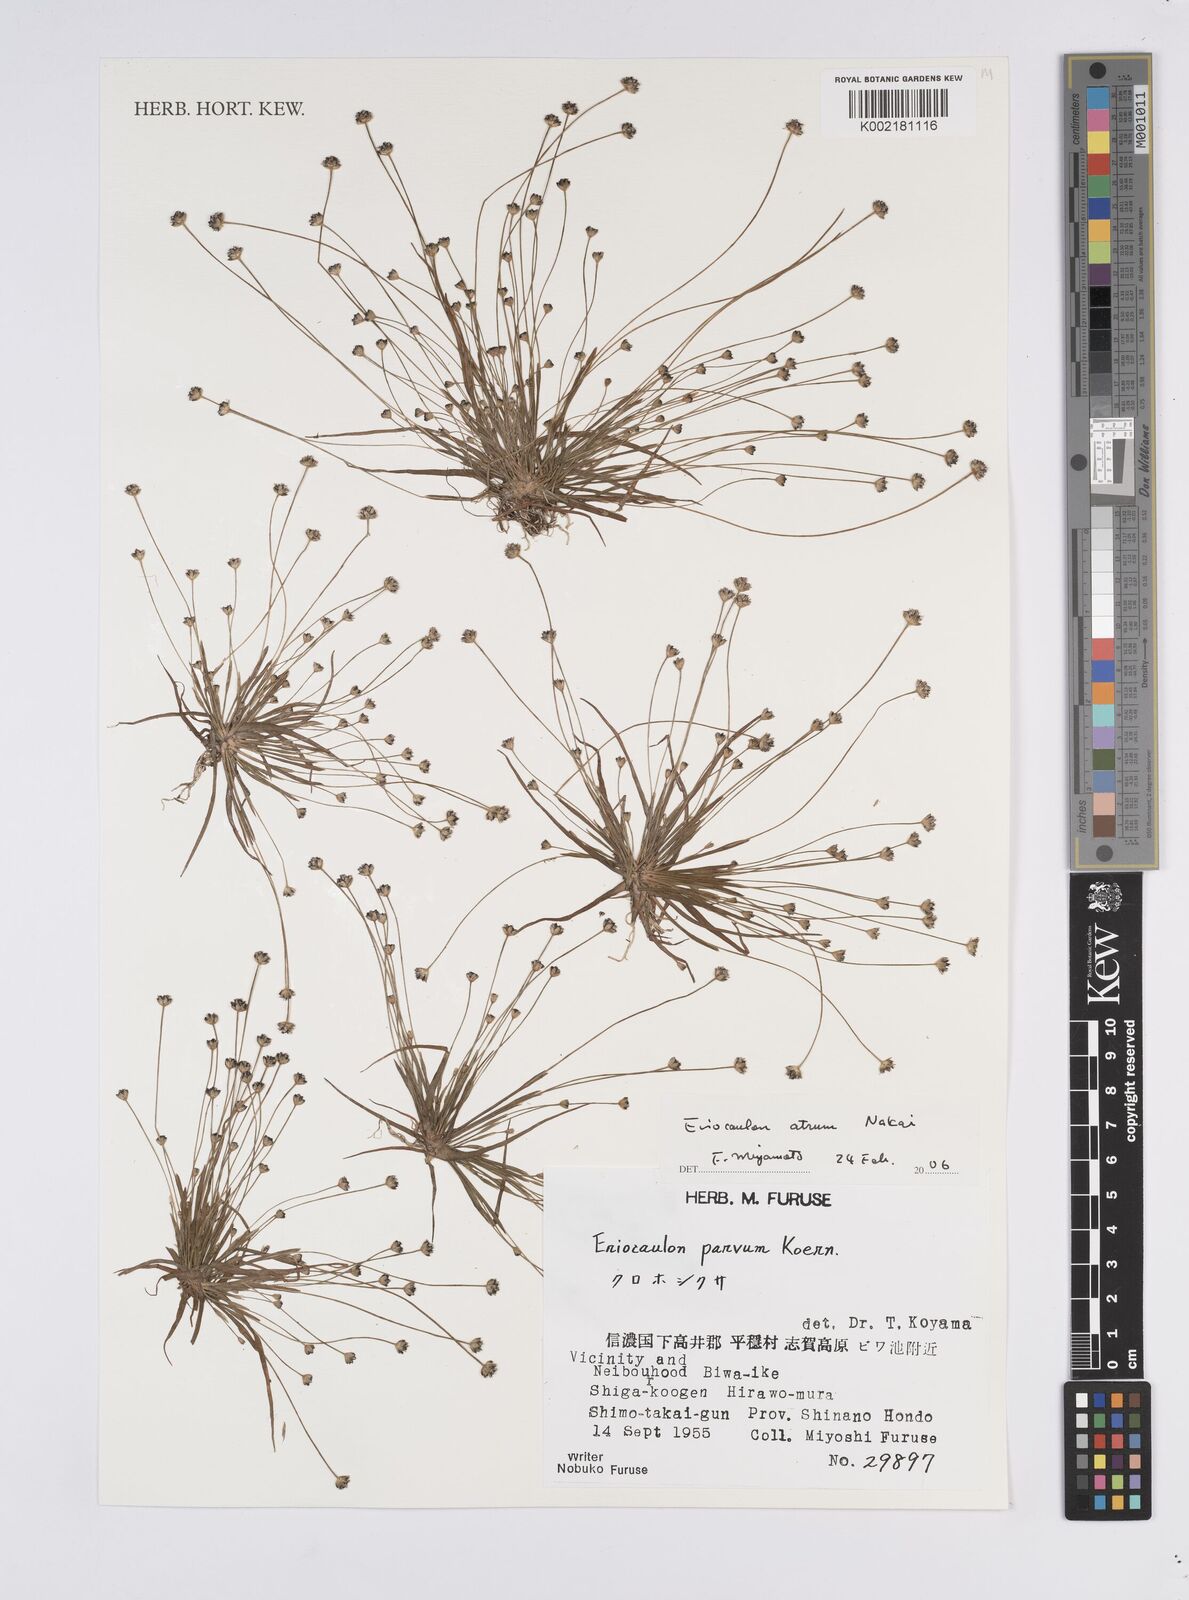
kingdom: Plantae
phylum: Tracheophyta
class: Liliopsida
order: Poales
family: Eriocaulaceae
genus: Eriocaulon
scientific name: Eriocaulon atrum
